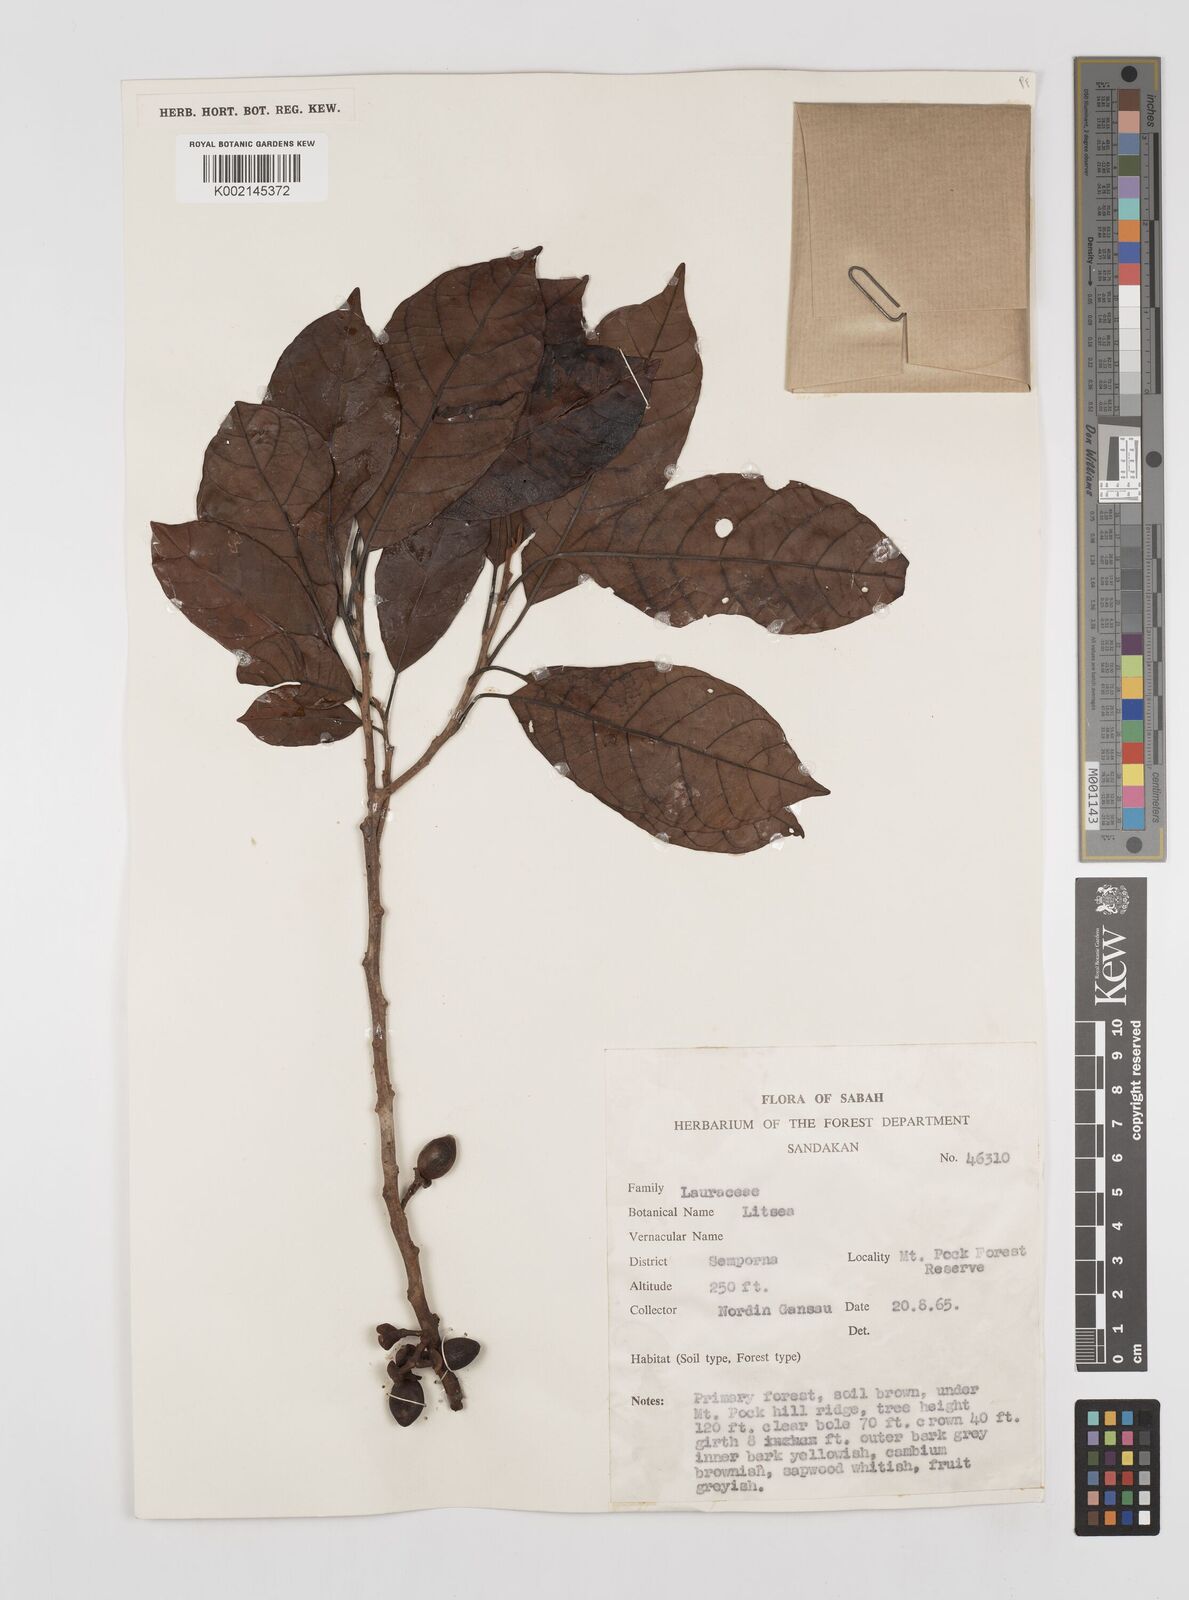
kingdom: Plantae
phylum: Tracheophyta
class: Magnoliopsida
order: Laurales
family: Lauraceae
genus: Litsea
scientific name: Litsea
